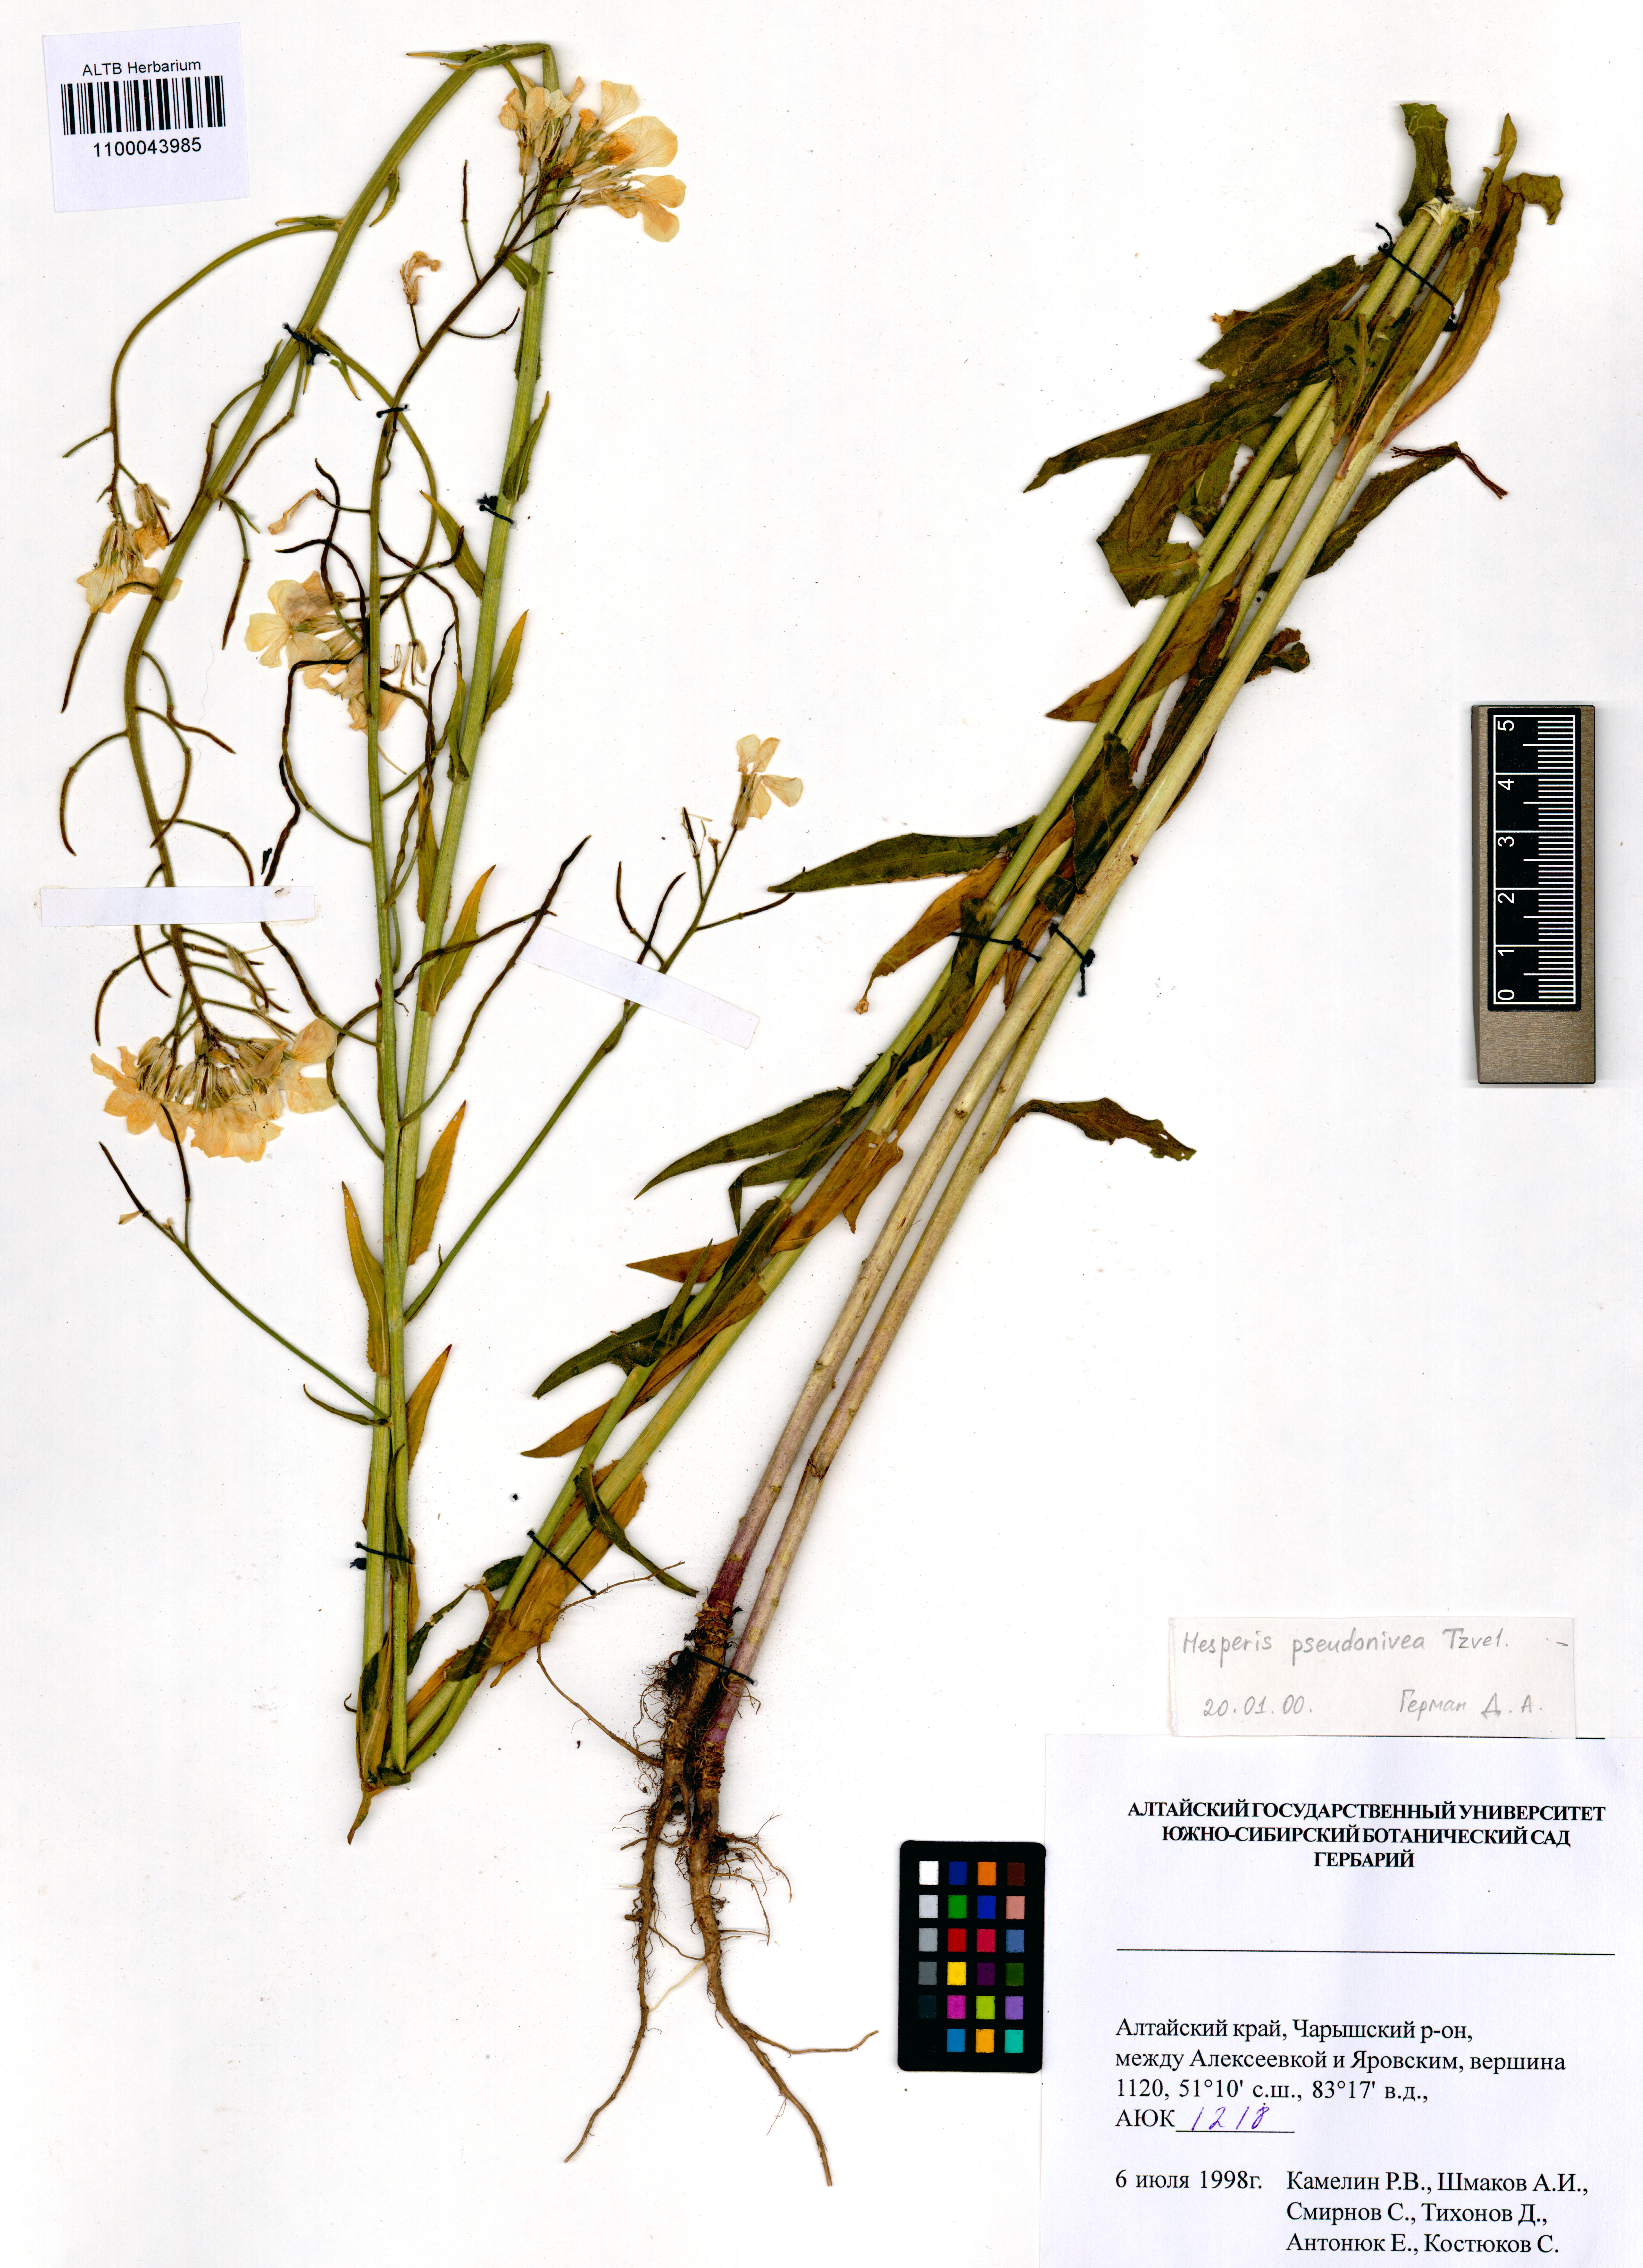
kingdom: Plantae
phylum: Tracheophyta
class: Magnoliopsida
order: Brassicales
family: Brassicaceae
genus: Hesperis
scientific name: Hesperis sibirica
